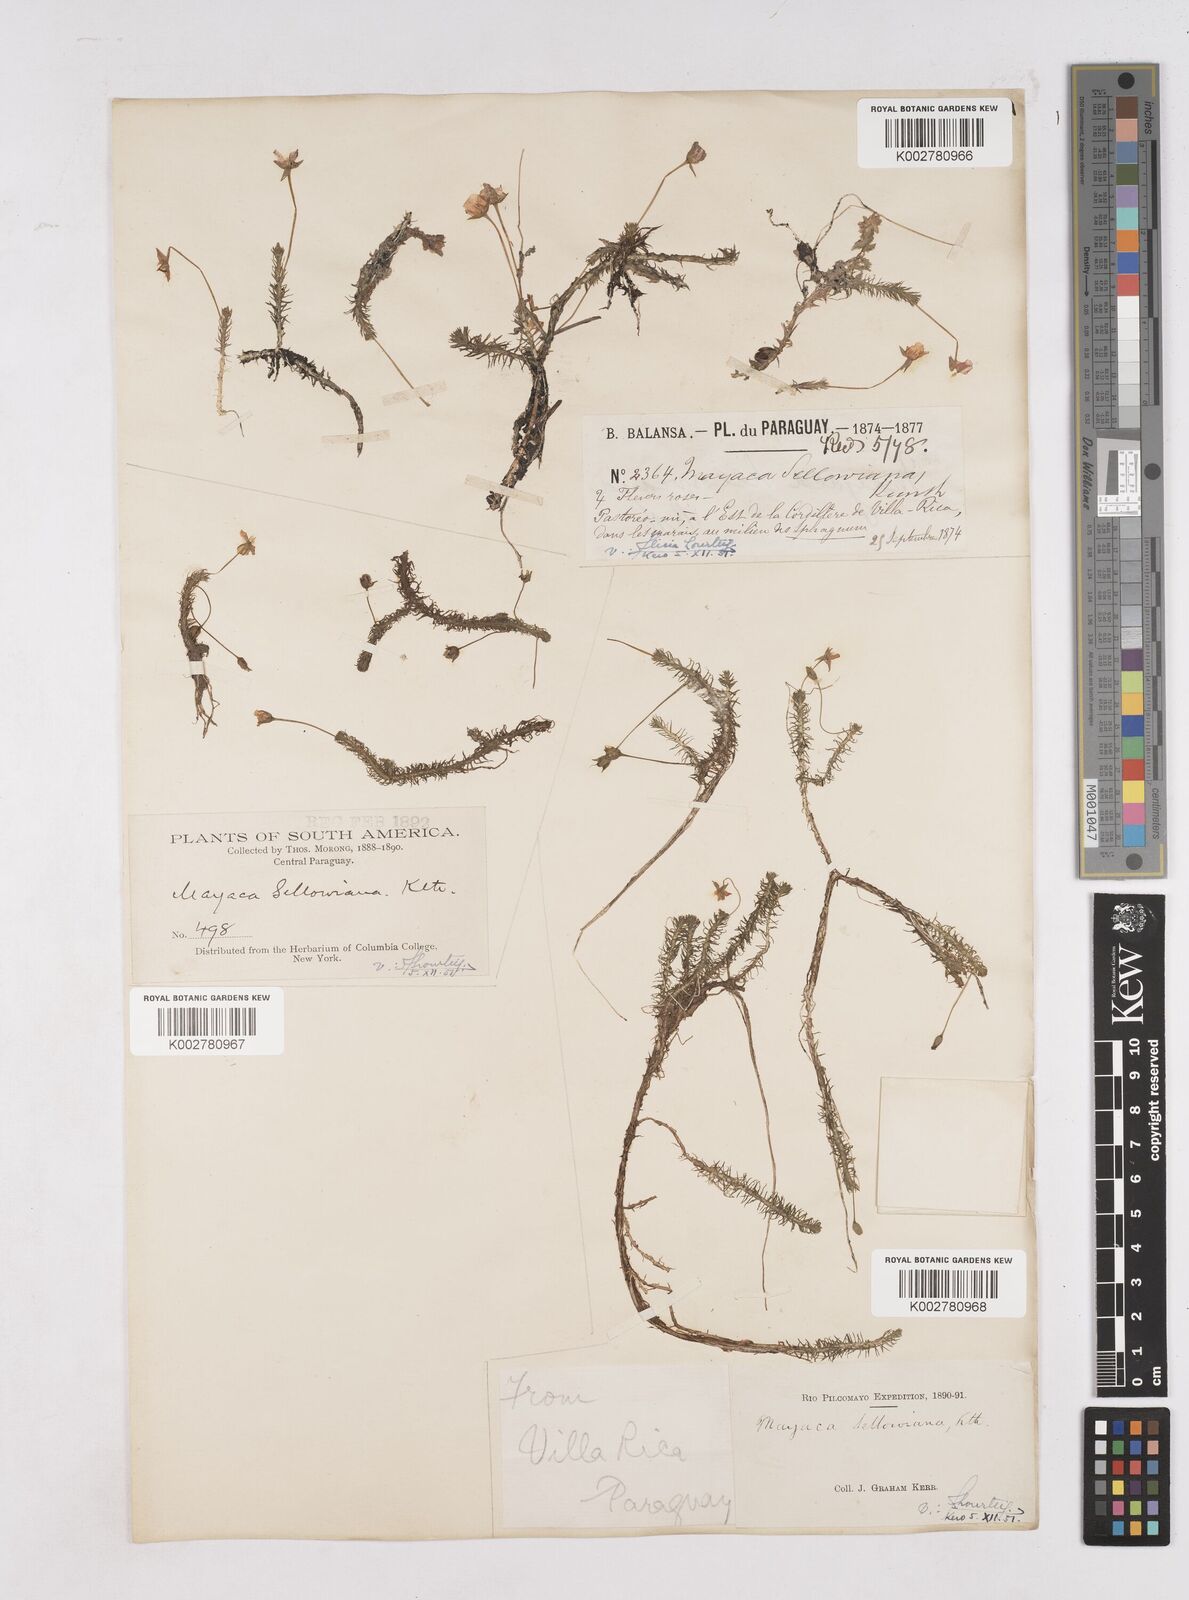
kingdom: Plantae
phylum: Tracheophyta
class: Liliopsida
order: Poales
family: Mayacaceae
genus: Mayaca
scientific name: Mayaca sellowiana
